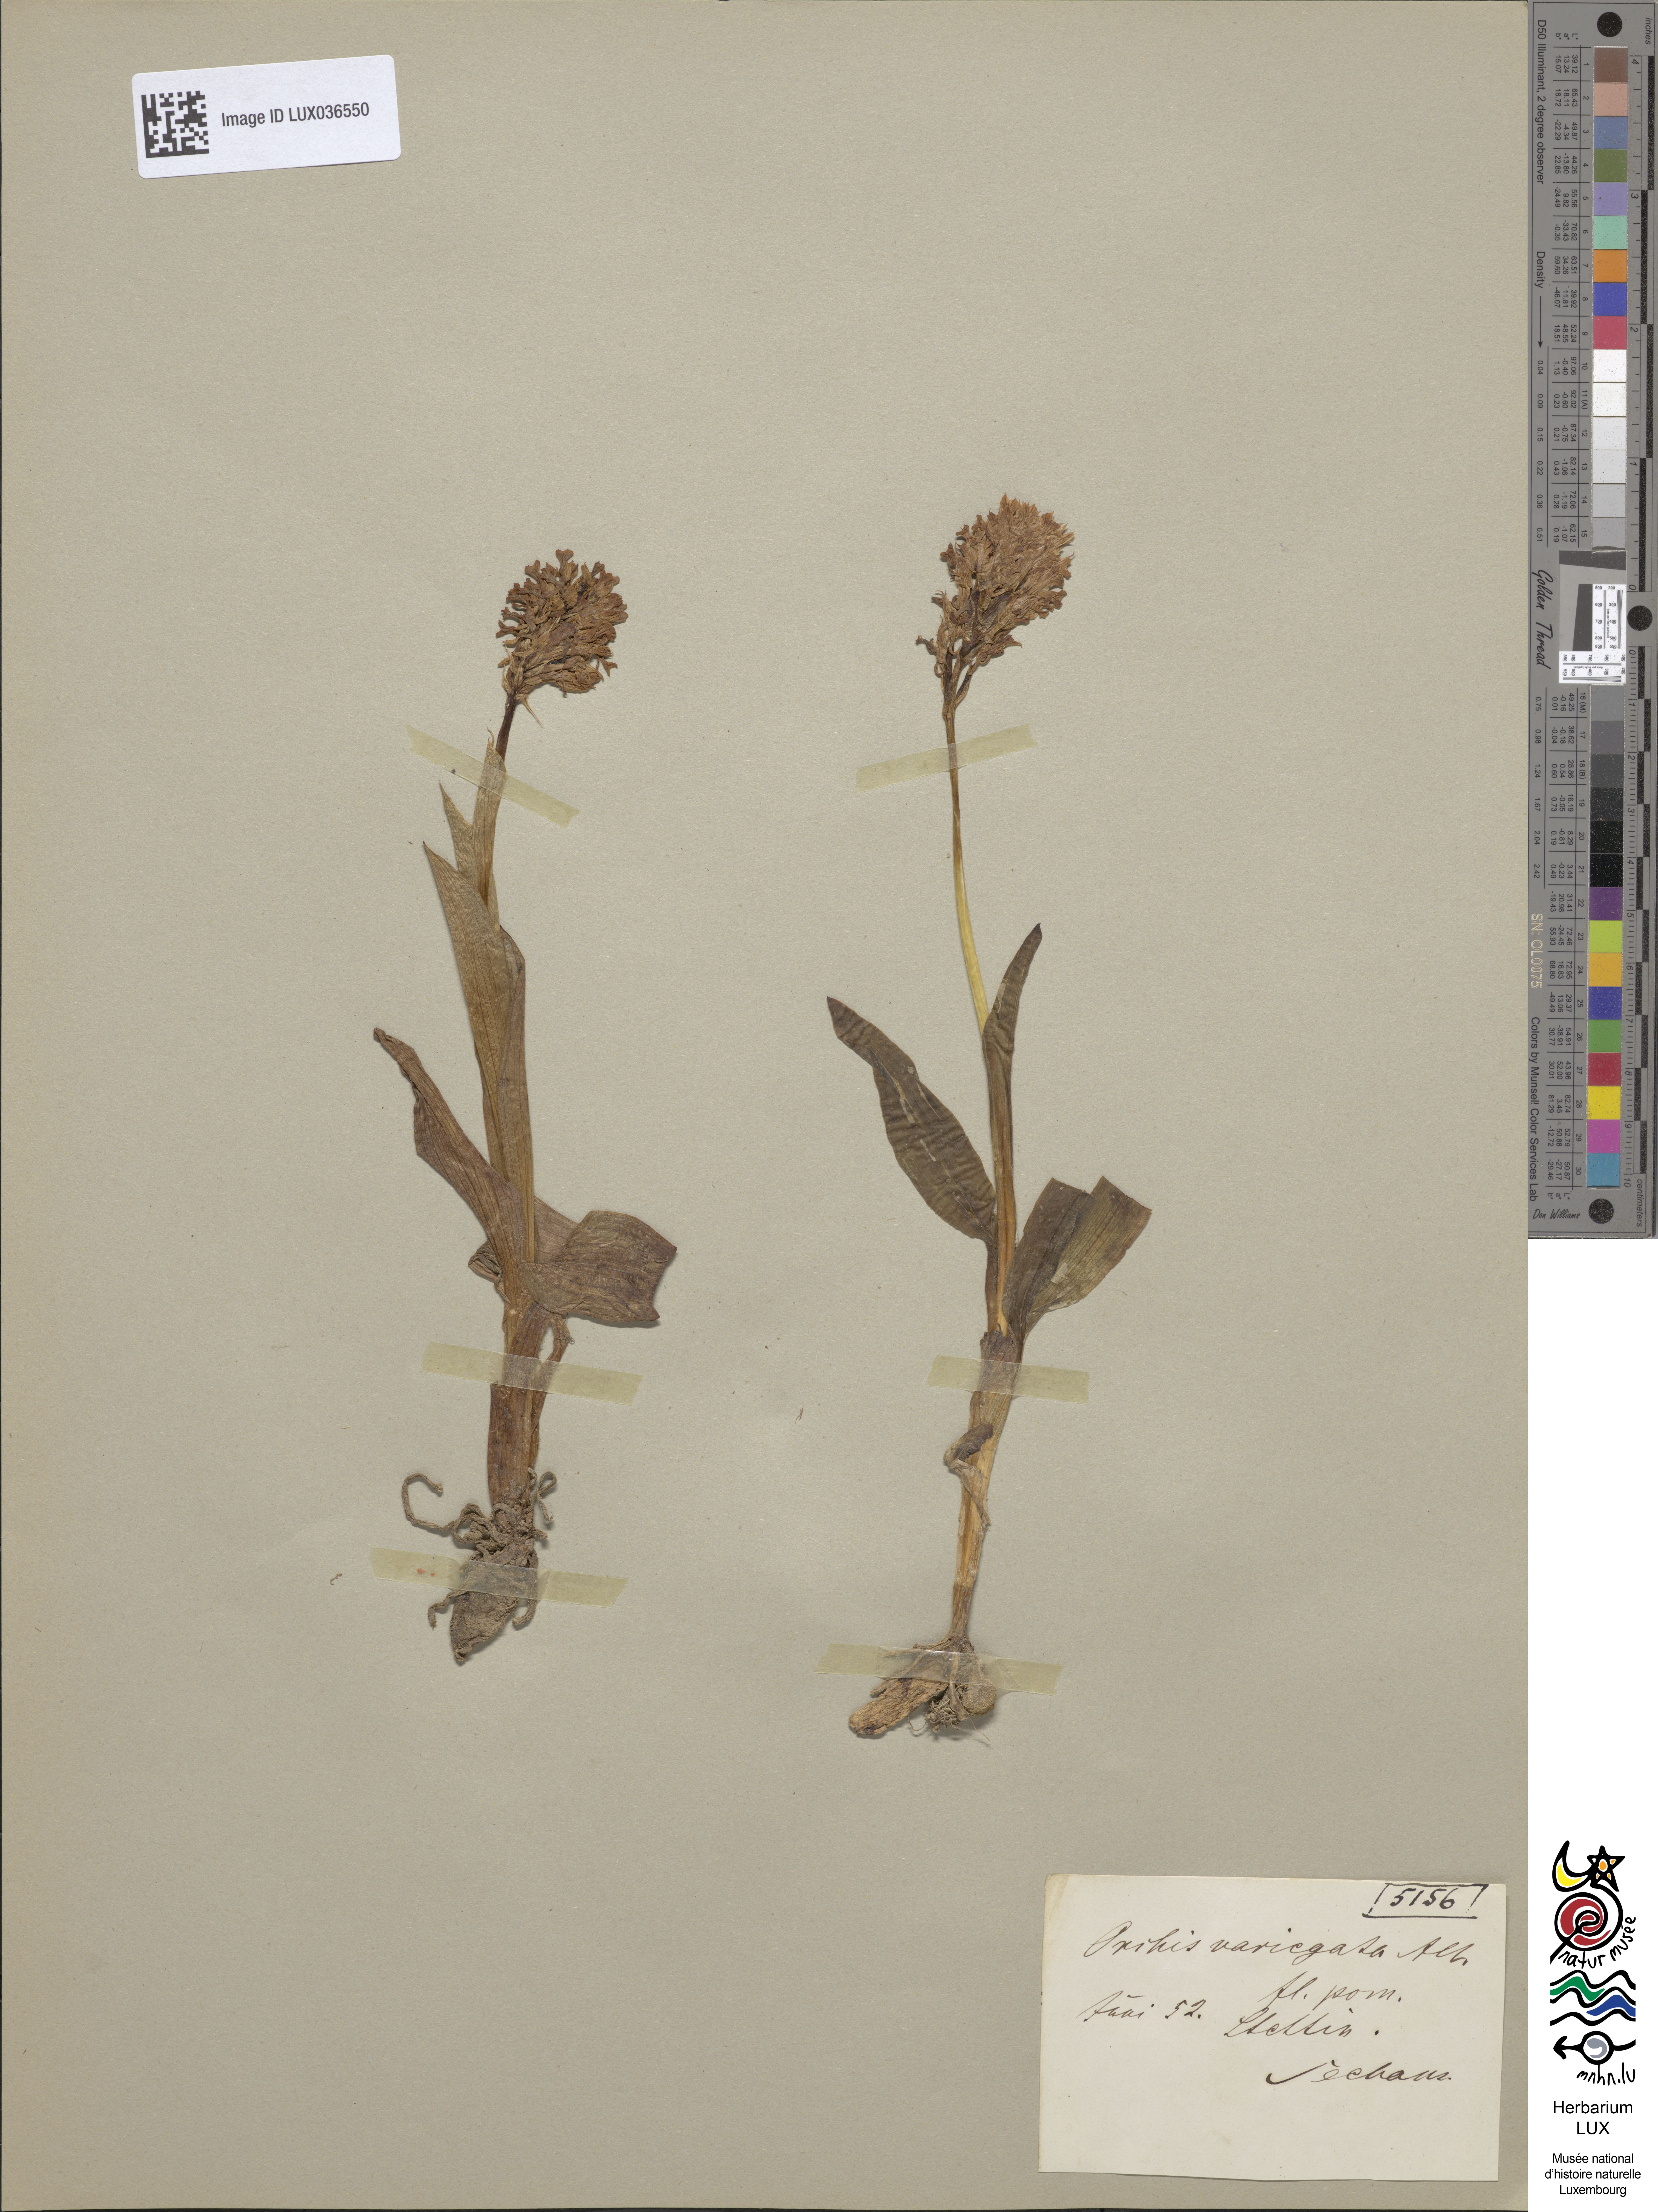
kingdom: Plantae
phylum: Tracheophyta
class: Liliopsida
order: Asparagales
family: Orchidaceae
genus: Neotinea
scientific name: Neotinea tridentata
